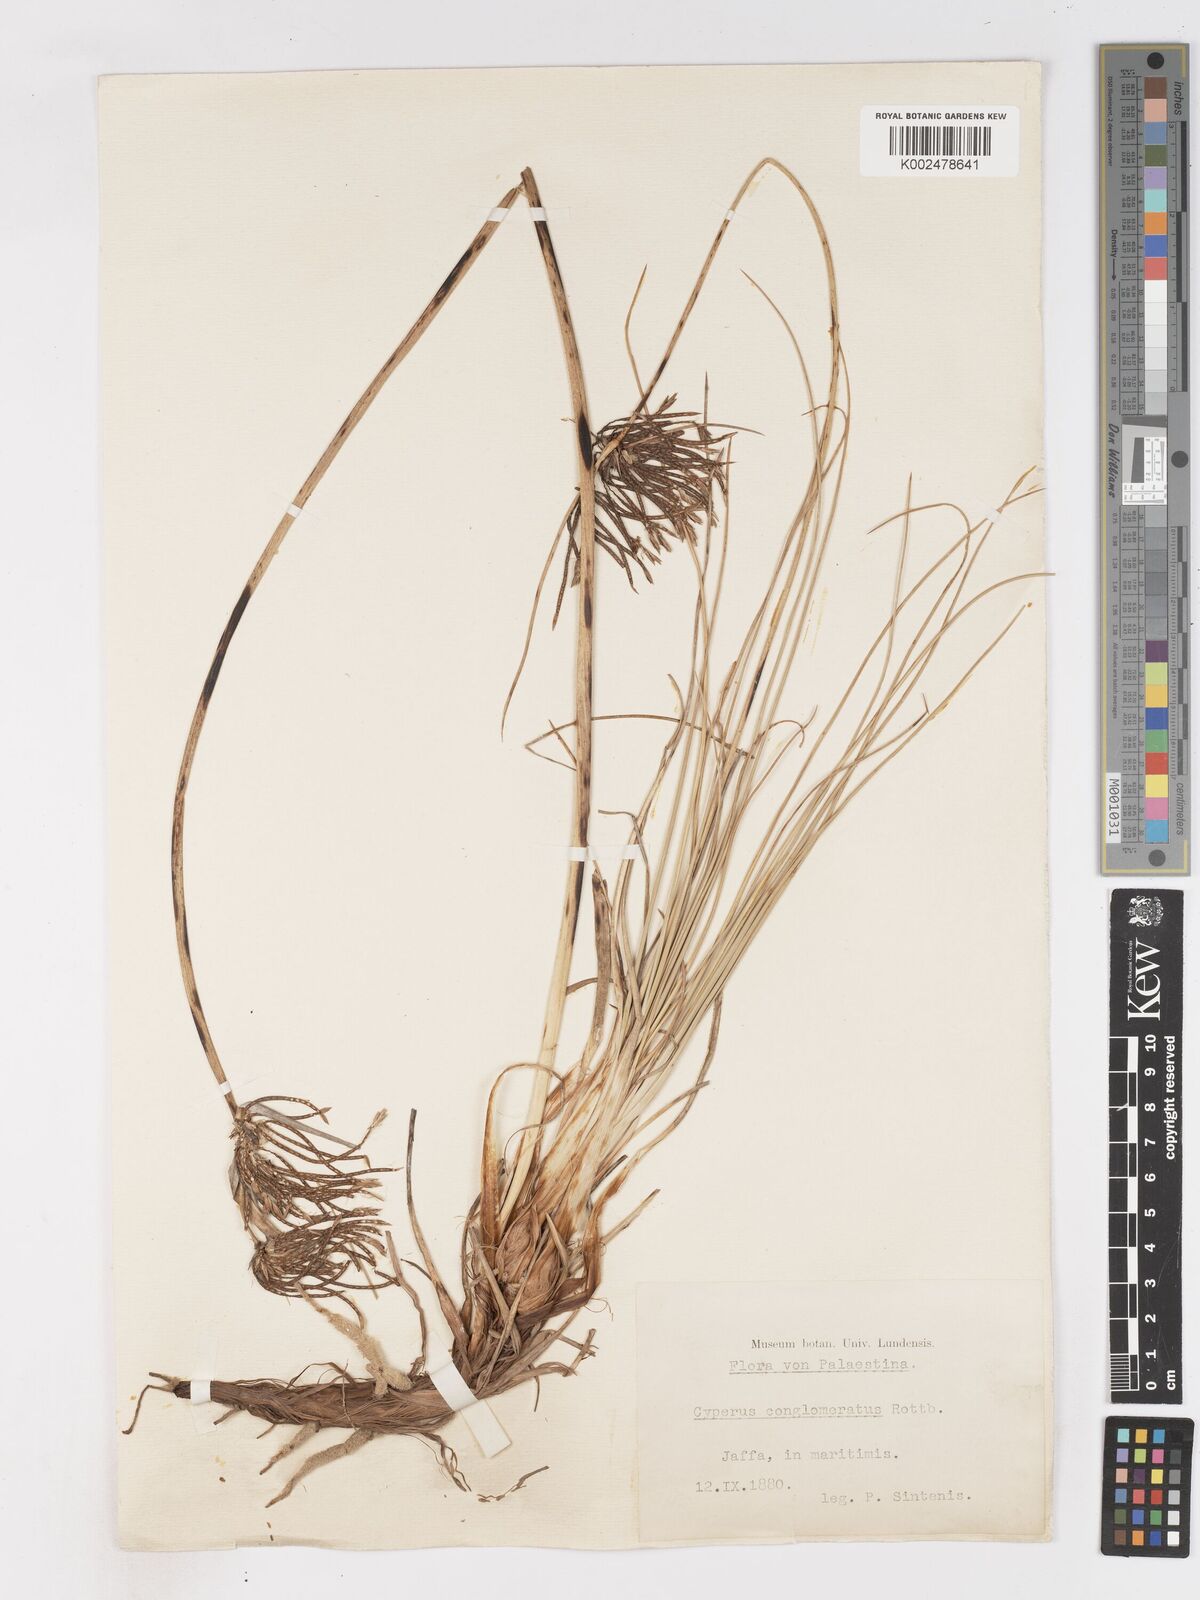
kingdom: Plantae
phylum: Tracheophyta
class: Liliopsida
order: Poales
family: Cyperaceae
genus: Cyperus
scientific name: Cyperus conglomeratus
